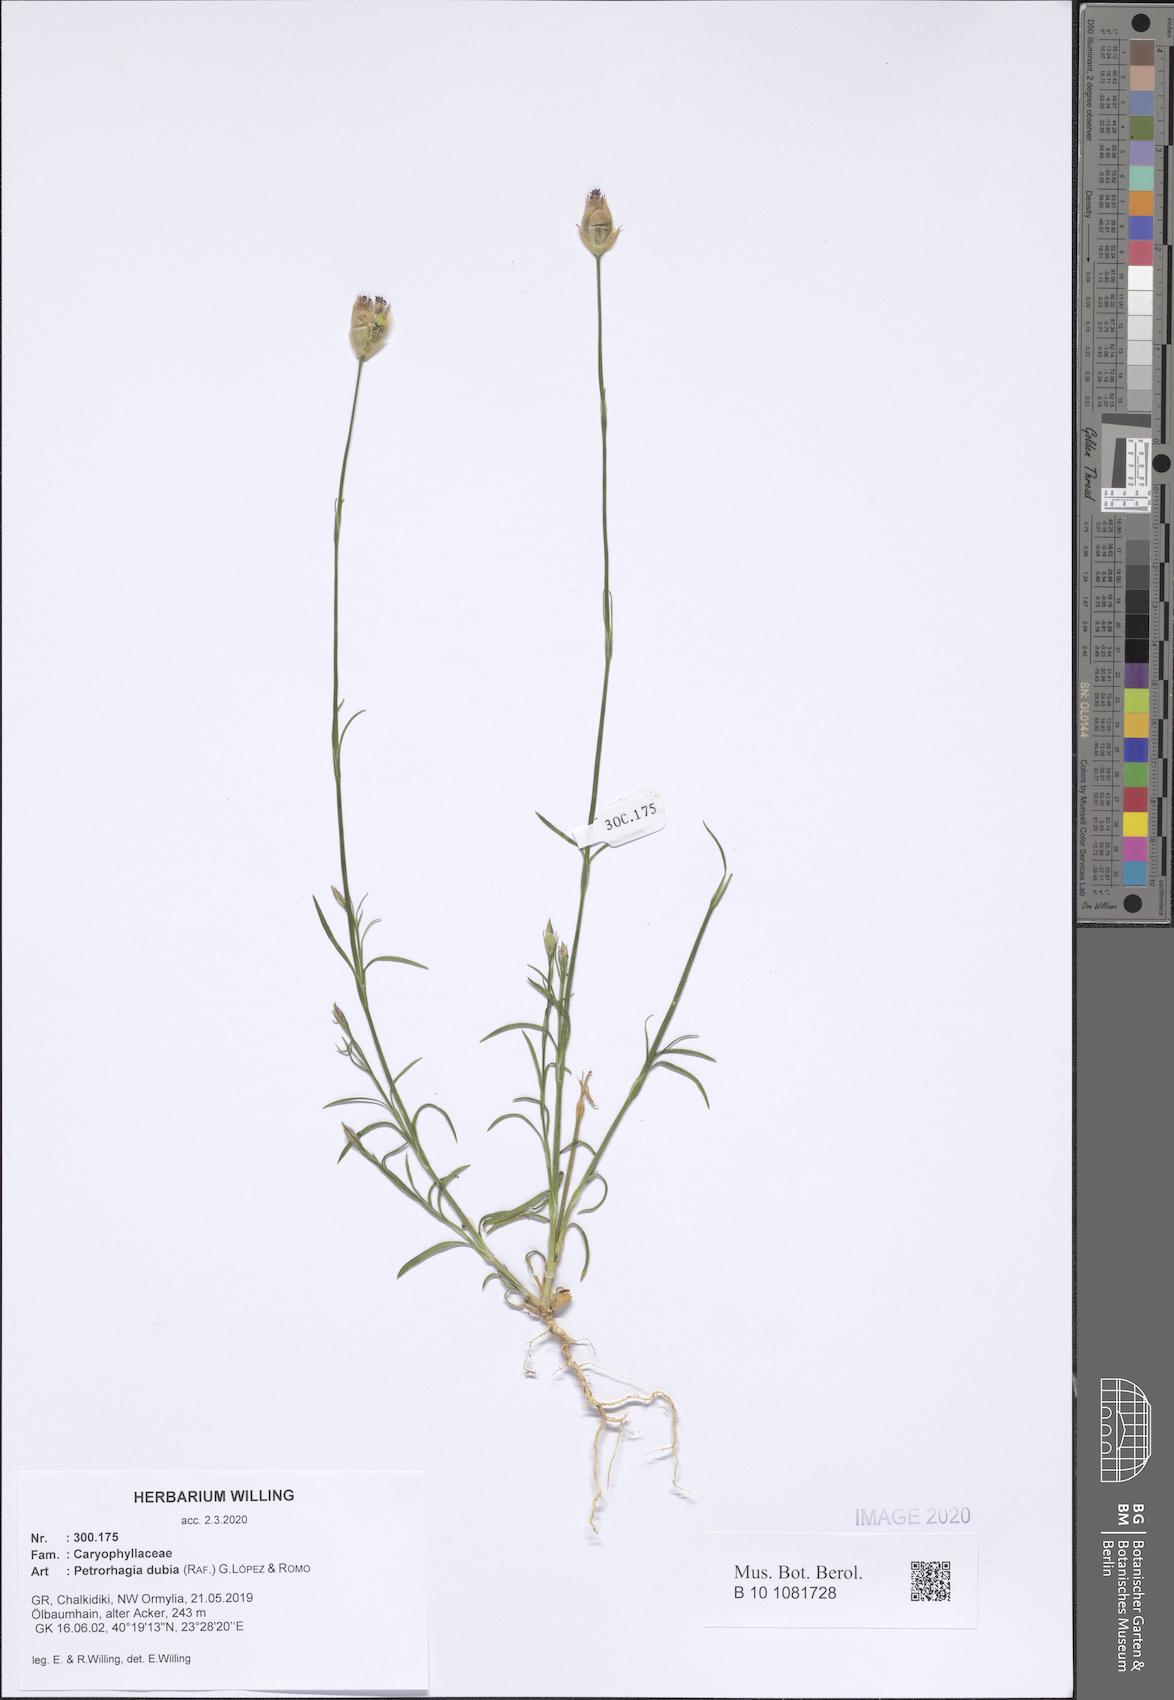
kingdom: Plantae
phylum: Tracheophyta
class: Magnoliopsida
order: Caryophyllales
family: Caryophyllaceae
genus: Petrorhagia
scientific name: Petrorhagia dubia
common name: Hairypink
